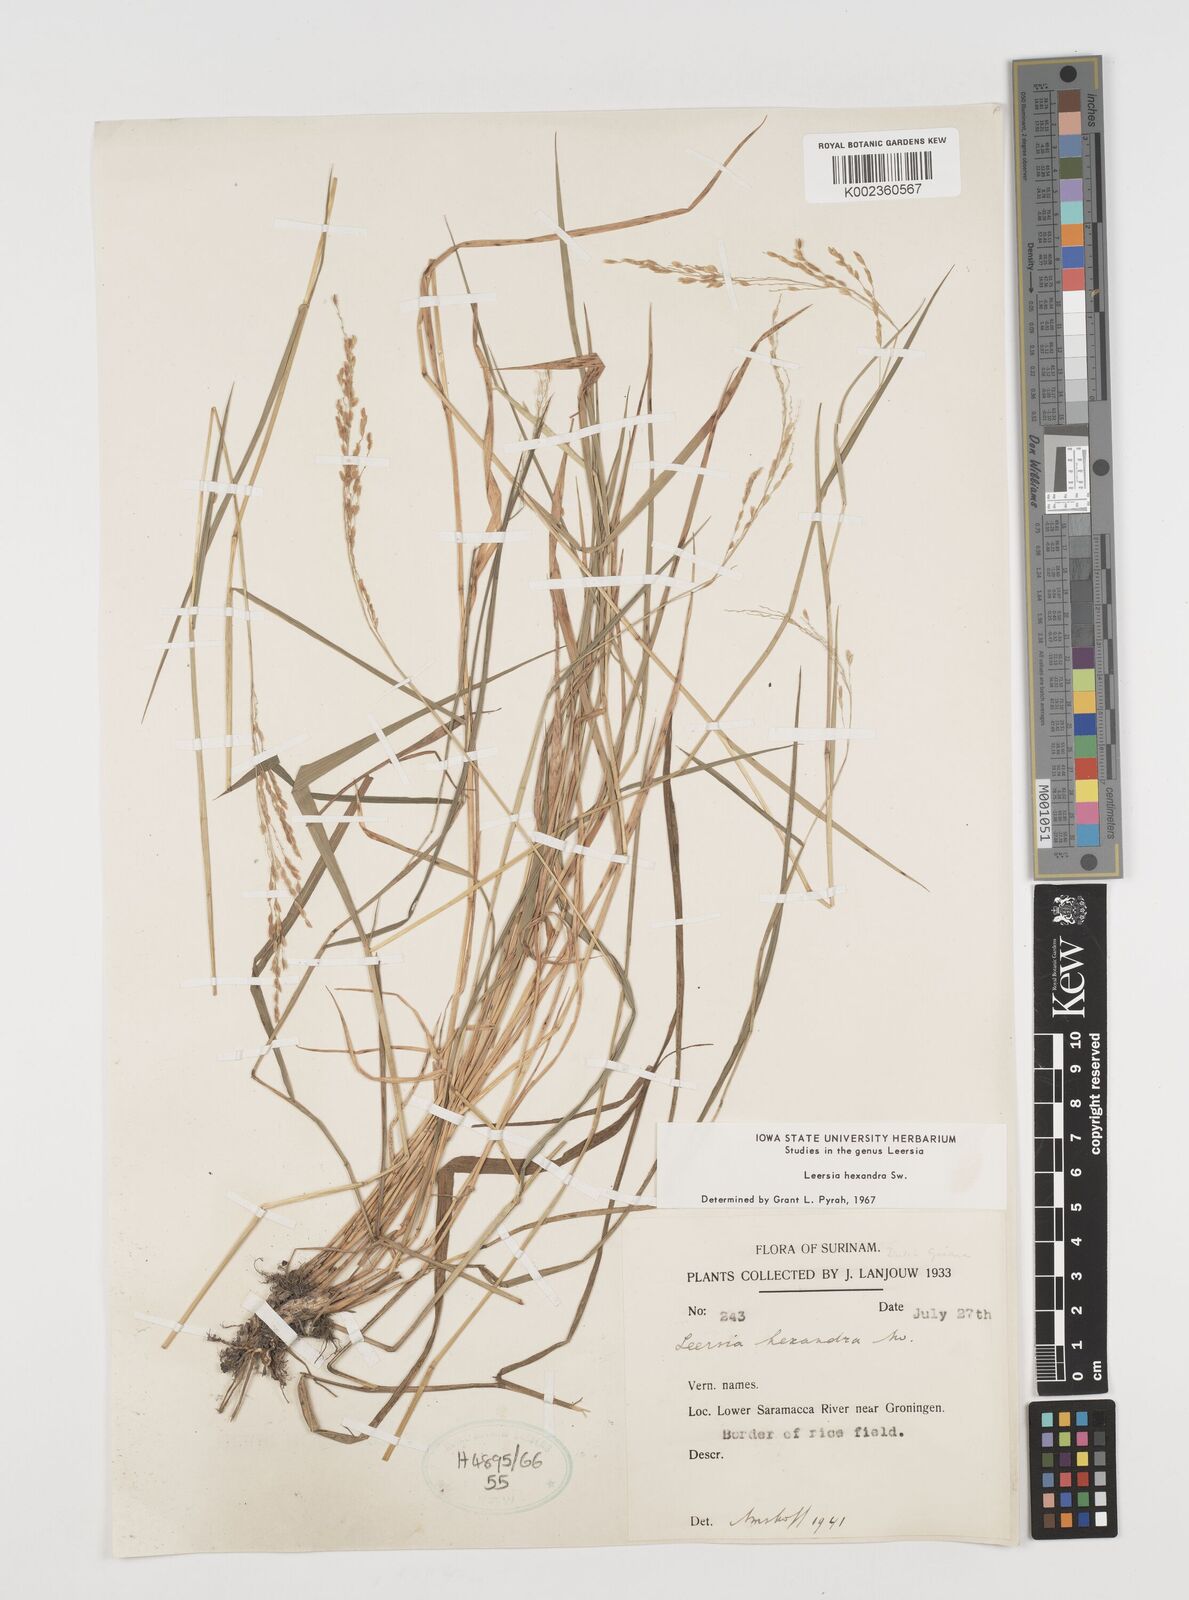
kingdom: Plantae
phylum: Tracheophyta
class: Liliopsida
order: Poales
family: Poaceae
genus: Leersia
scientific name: Leersia hexandra
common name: Southern cut grass
